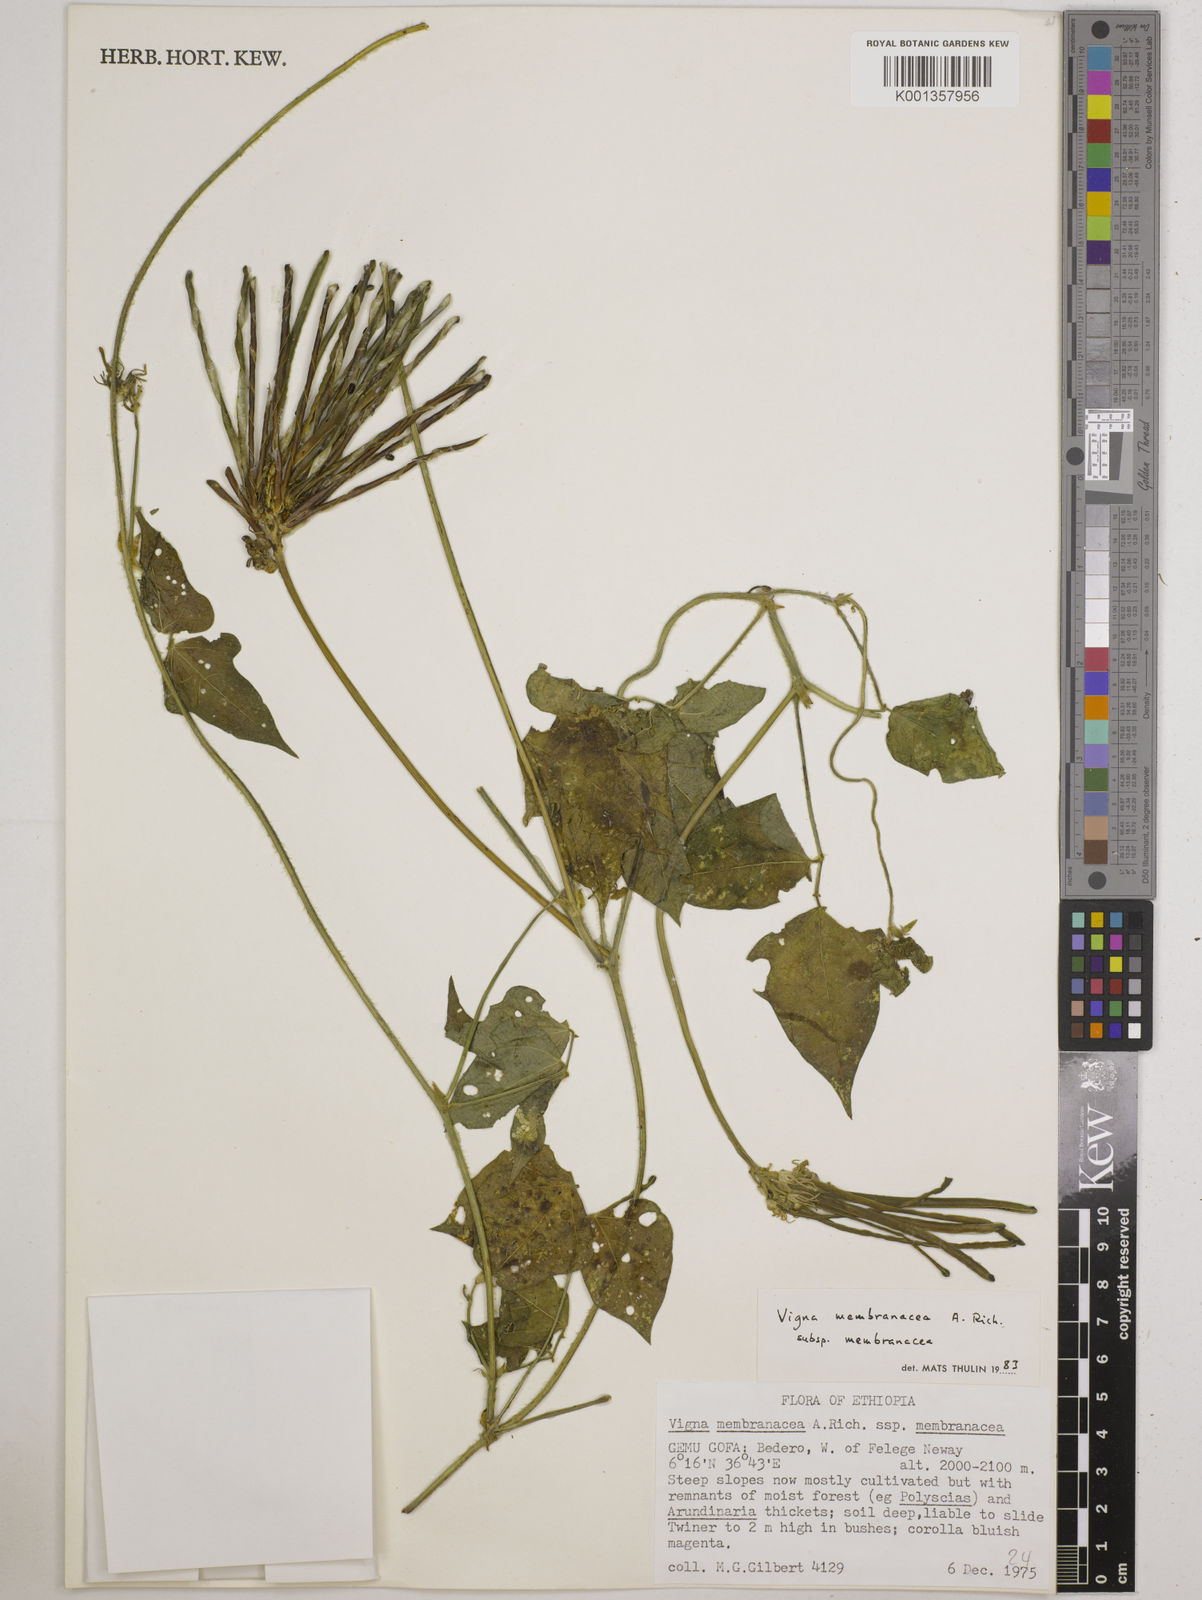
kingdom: Plantae
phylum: Tracheophyta
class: Magnoliopsida
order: Fabales
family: Fabaceae
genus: Vigna
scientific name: Vigna membranacea
